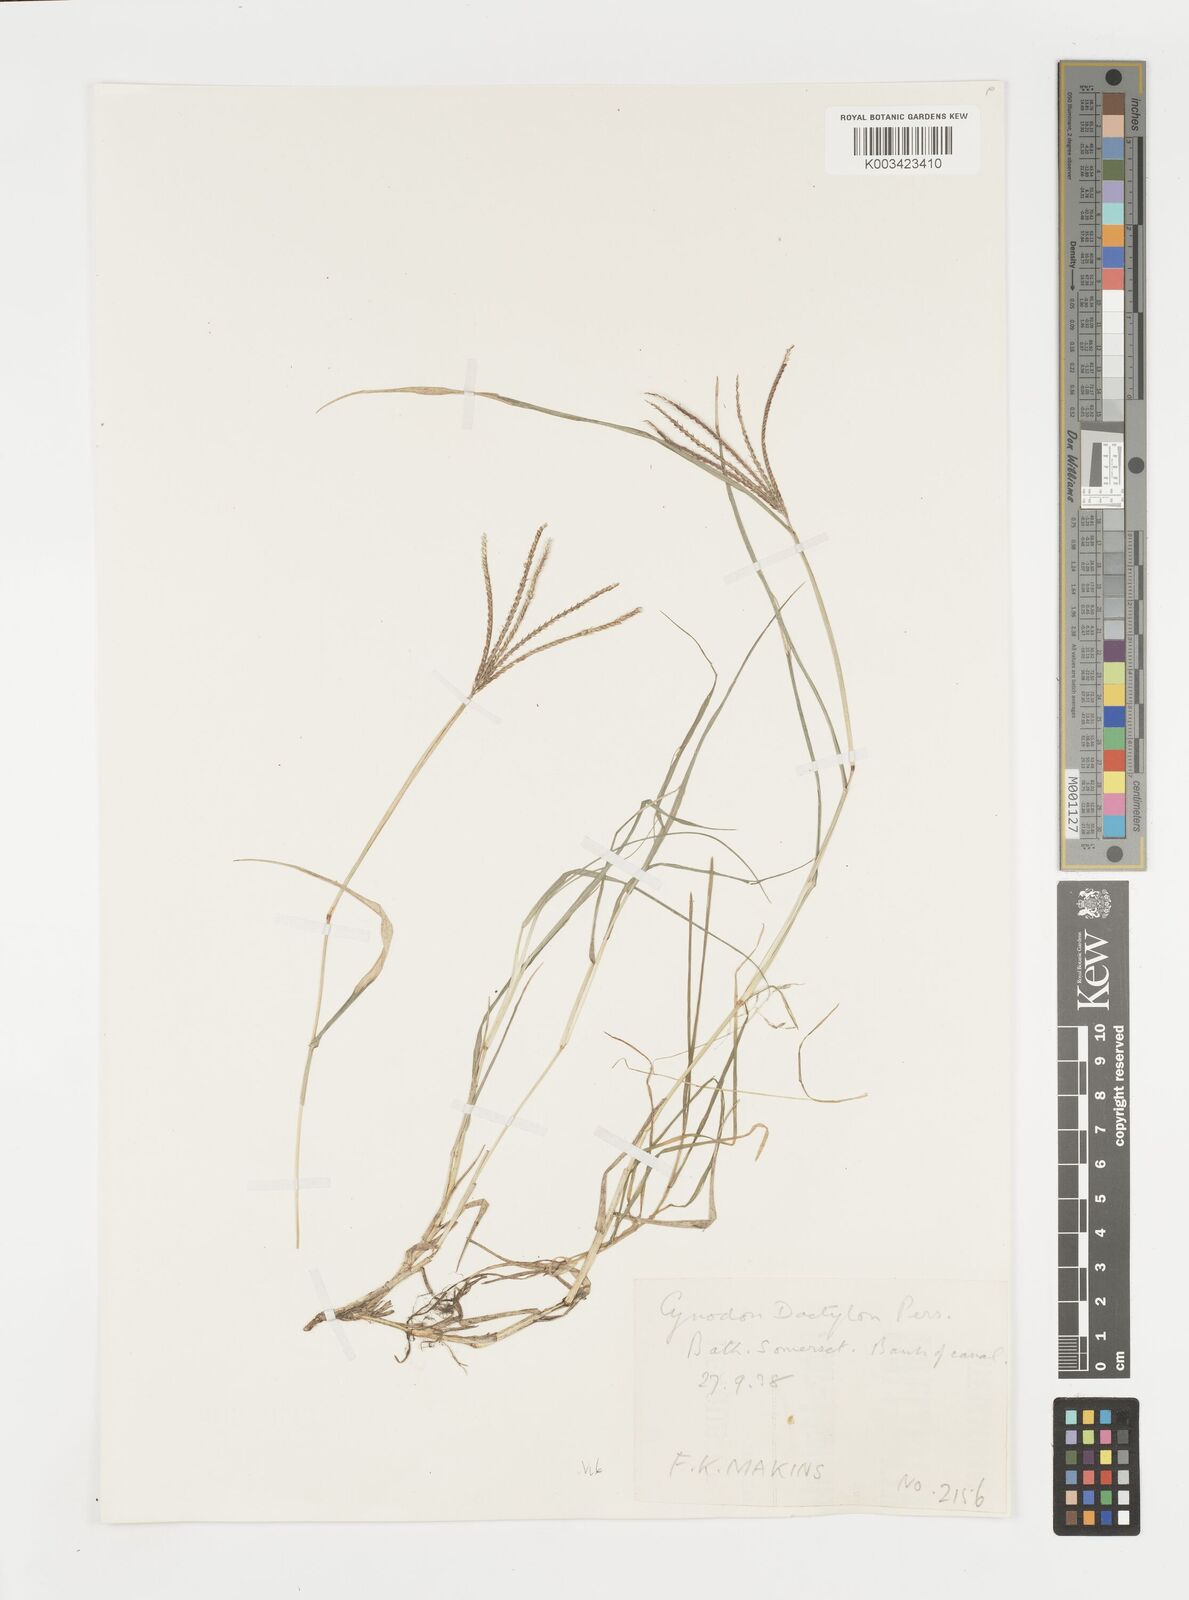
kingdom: Plantae
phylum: Tracheophyta
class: Liliopsida
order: Poales
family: Poaceae
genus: Cynodon
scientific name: Cynodon dactylon
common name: Bermuda grass
